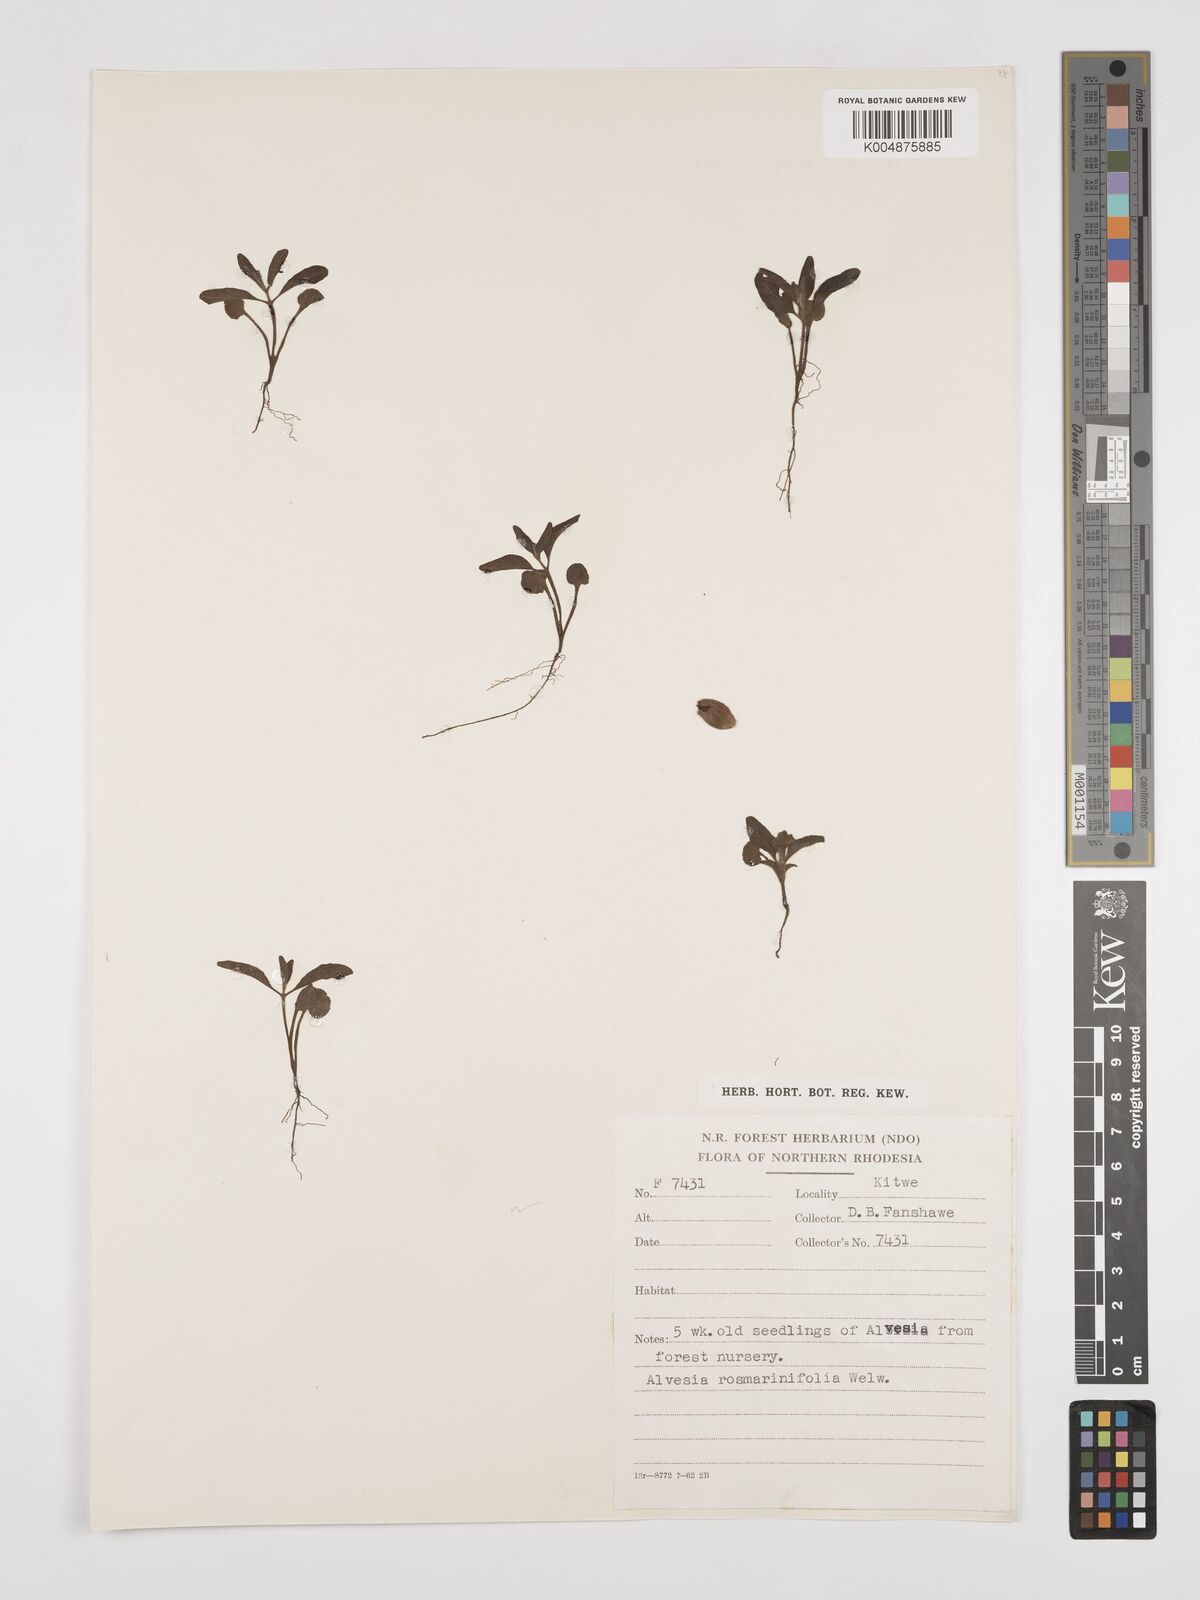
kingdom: Plantae
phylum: Tracheophyta
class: Magnoliopsida
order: Lamiales
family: Lamiaceae
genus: Alvesia
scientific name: Alvesia rosmarinifolia
